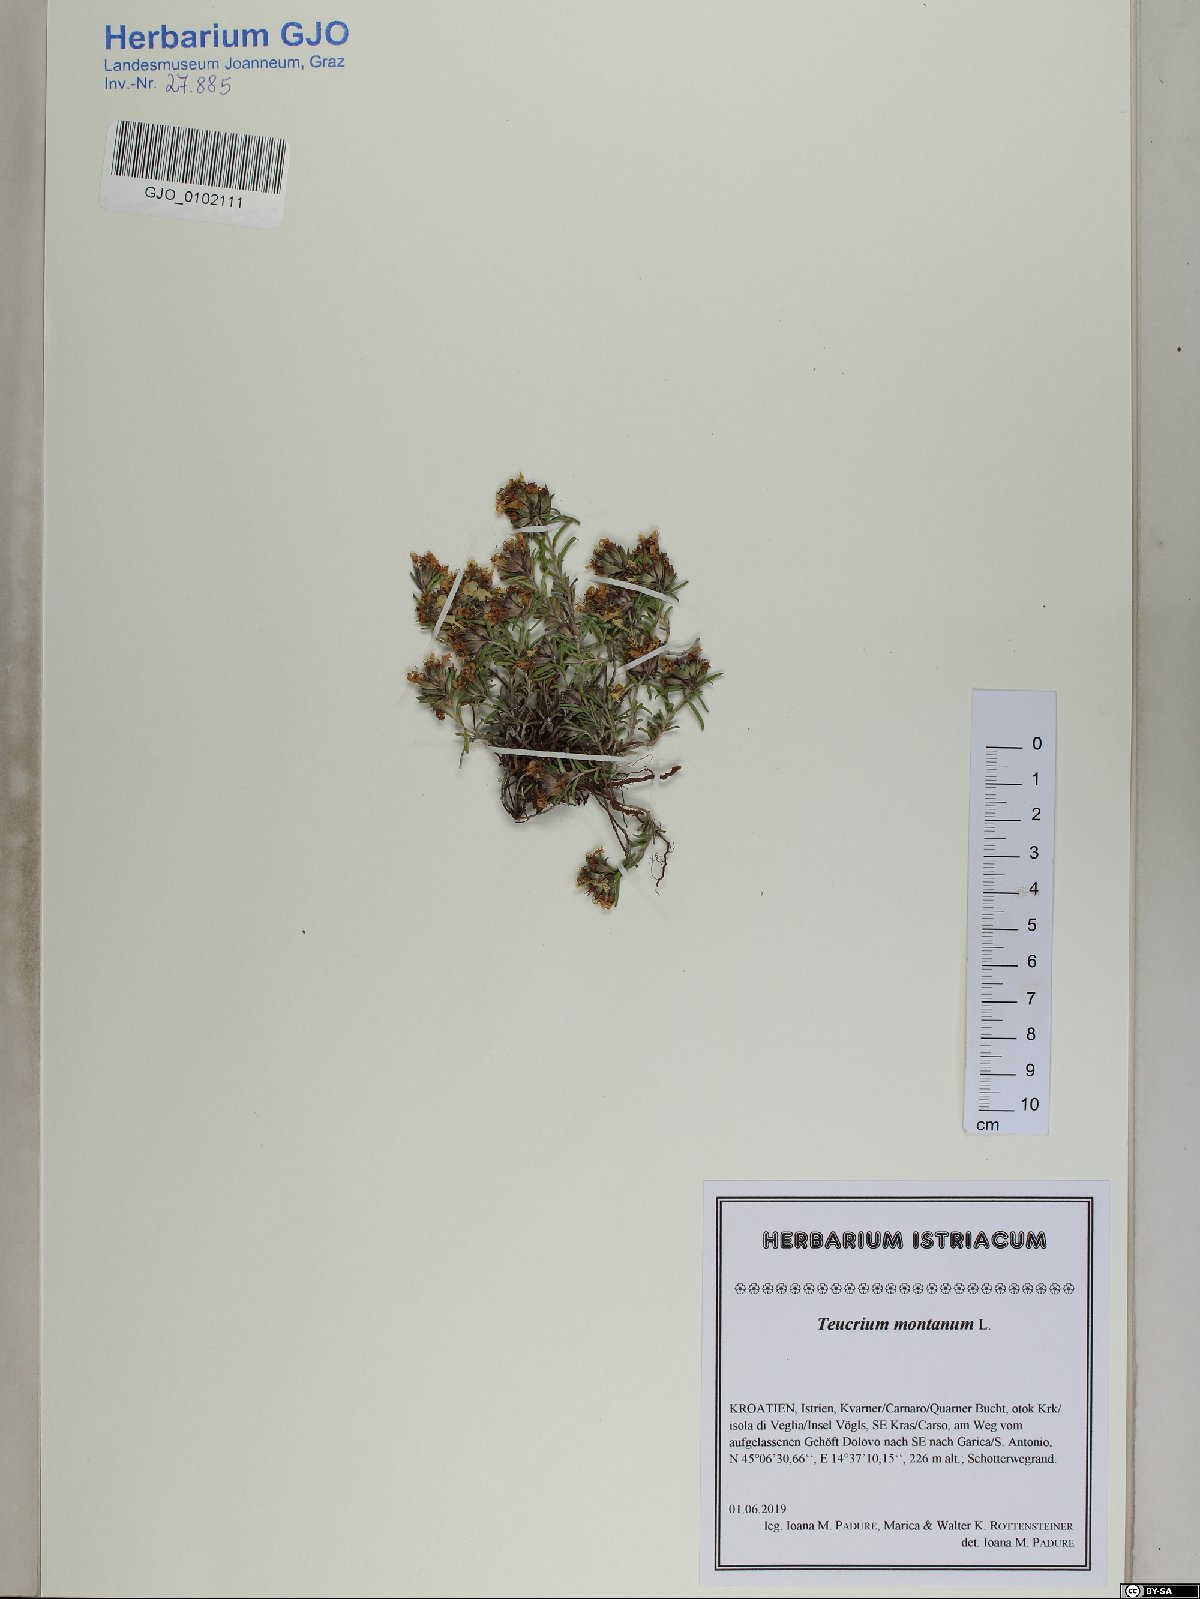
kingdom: Plantae
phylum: Tracheophyta
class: Magnoliopsida
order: Lamiales
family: Lamiaceae
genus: Teucrium
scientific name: Teucrium montanum
